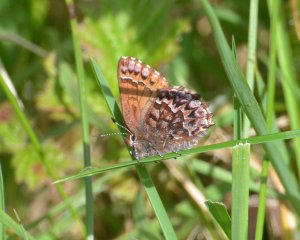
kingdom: Animalia
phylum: Arthropoda
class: Insecta
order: Lepidoptera
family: Lycaenidae
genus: Incisalia
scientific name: Incisalia eryphon
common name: Western Pine Elfin
